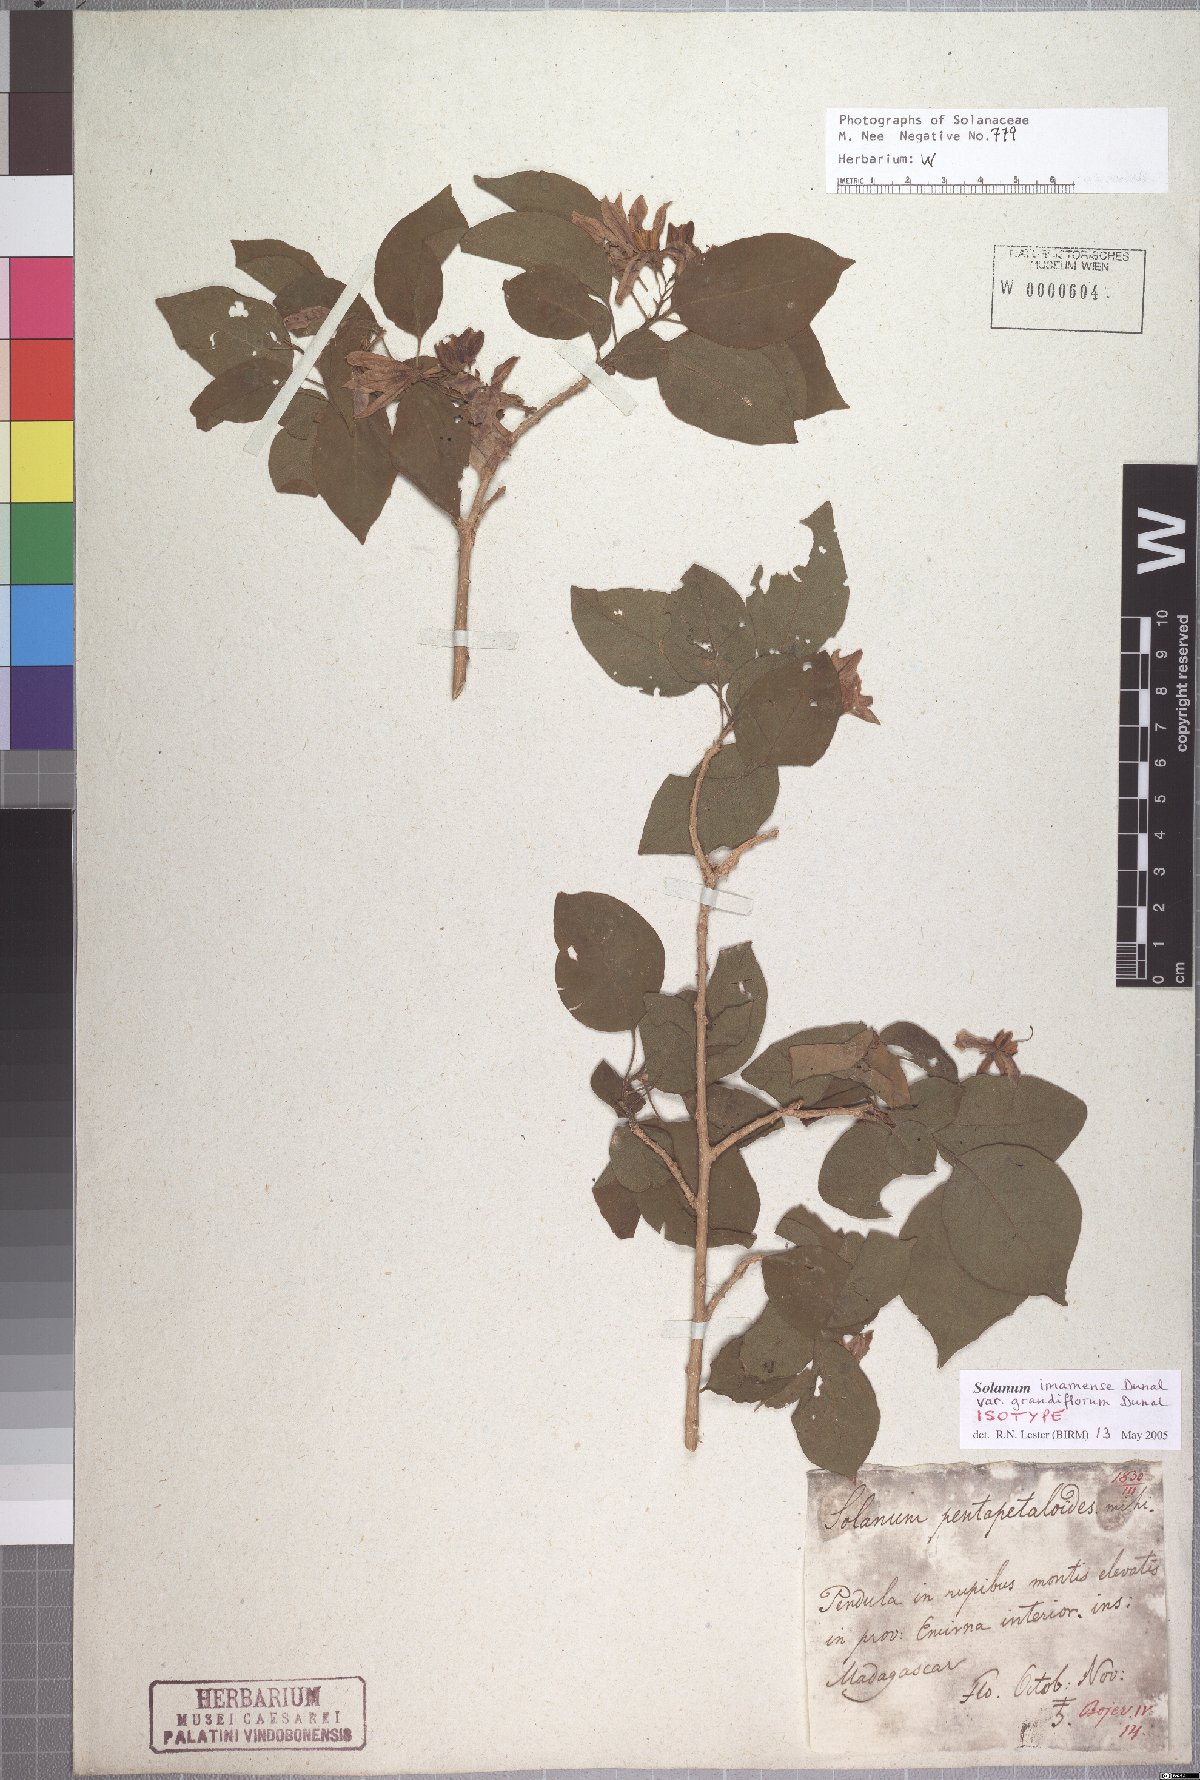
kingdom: Plantae
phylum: Tracheophyta
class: Magnoliopsida
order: Solanales
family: Solanaceae
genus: Solanum
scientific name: Solanum imamense
